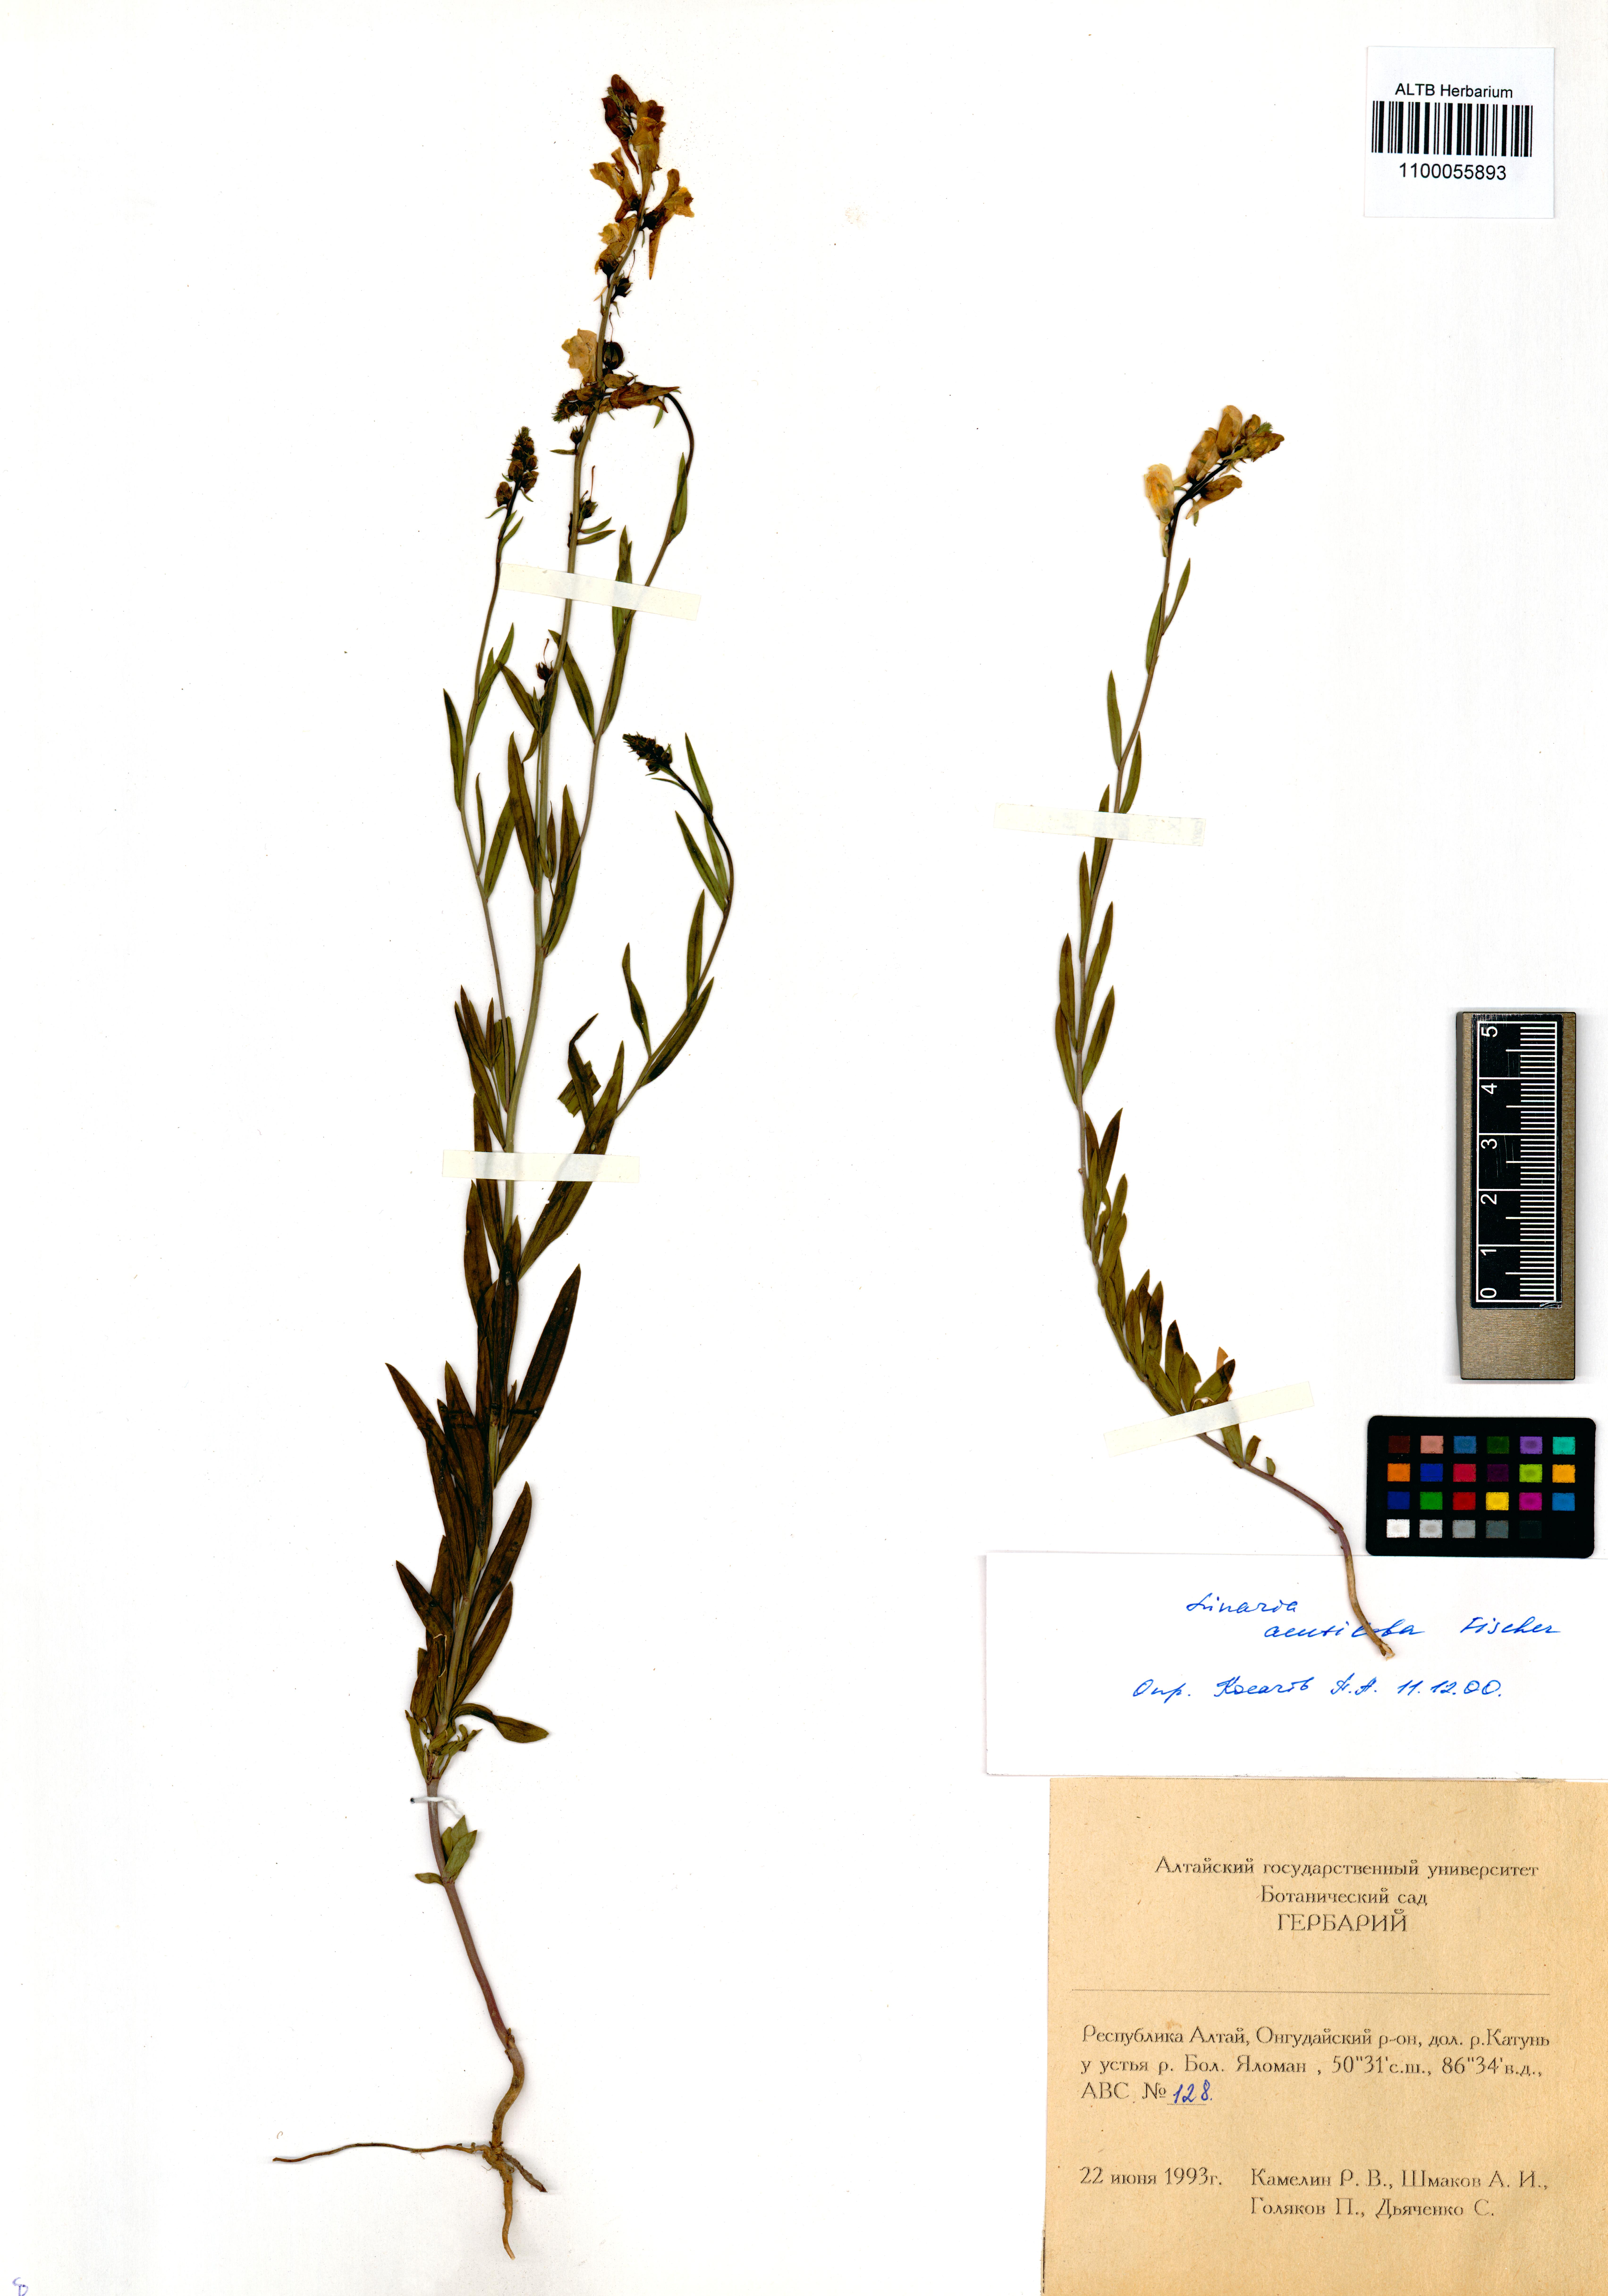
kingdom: Plantae
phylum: Tracheophyta
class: Magnoliopsida
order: Lamiales
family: Plantaginaceae
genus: Linaria
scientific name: Linaria acutiloba
